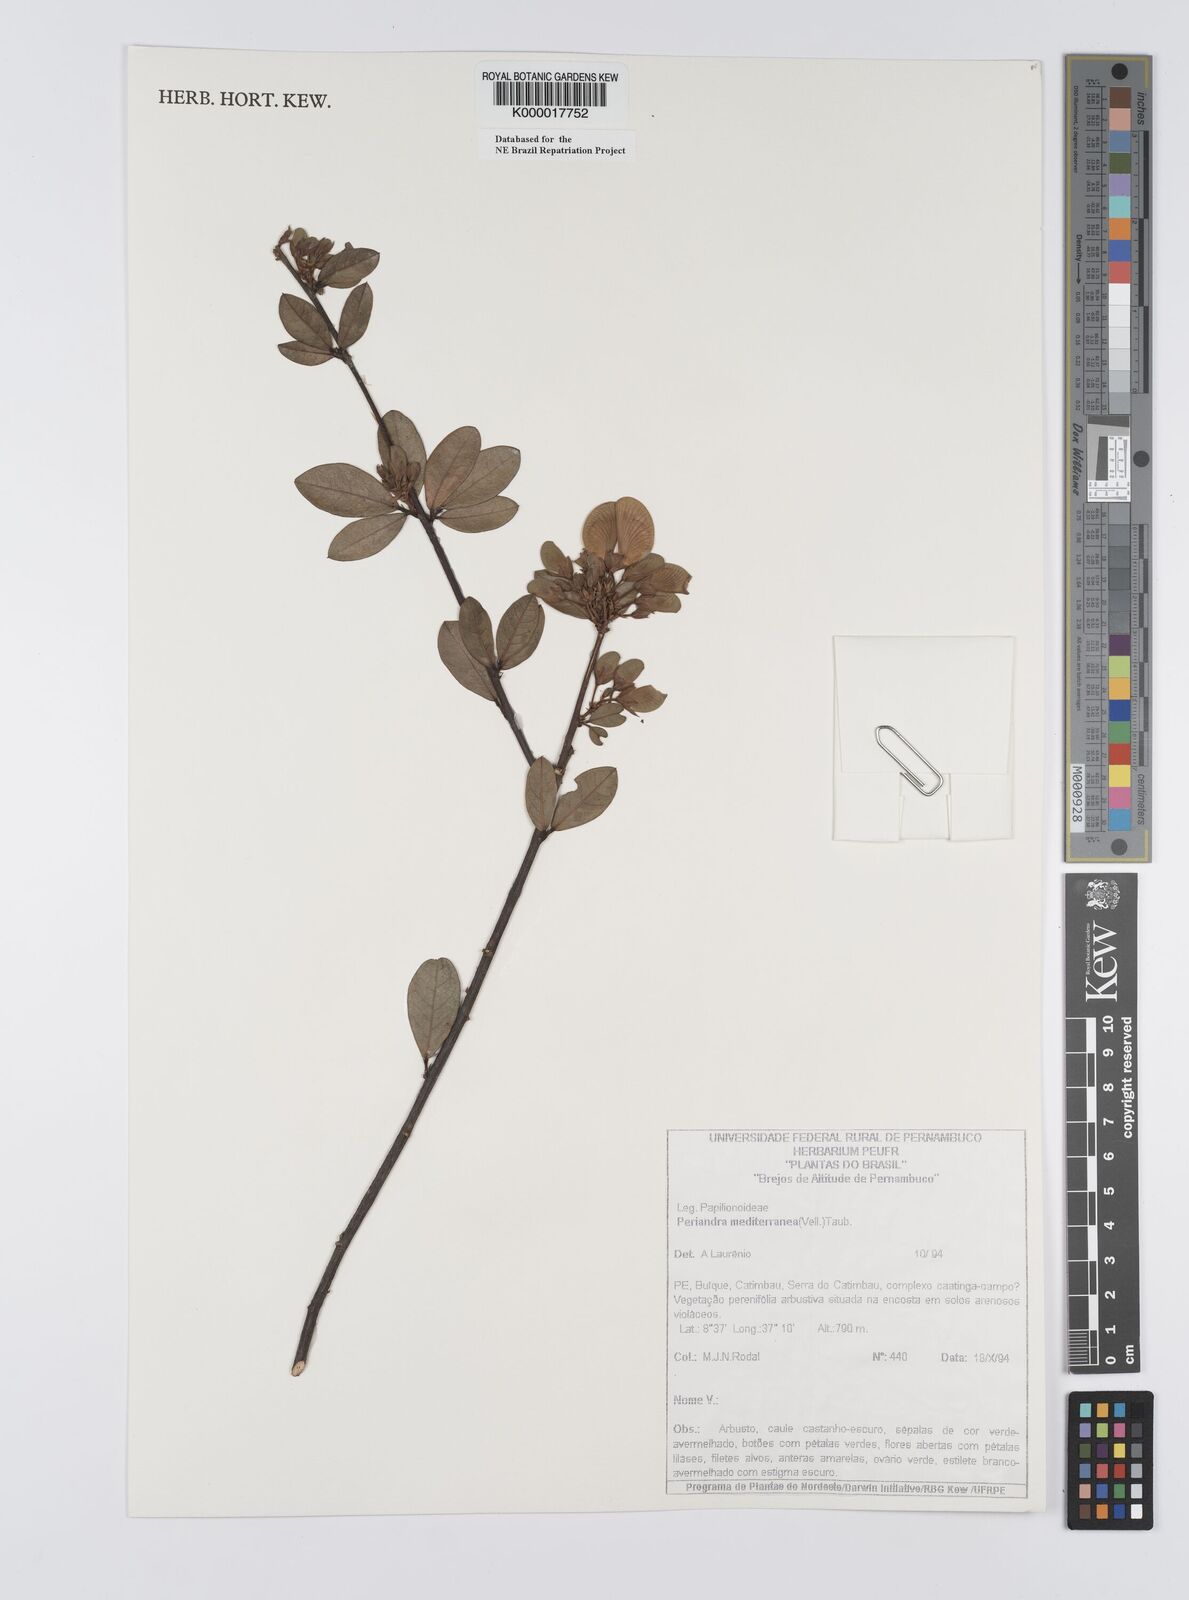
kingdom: Plantae
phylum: Tracheophyta
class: Magnoliopsida
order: Fabales
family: Fabaceae
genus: Periandra
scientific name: Periandra mediterranea
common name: Brazilian licorice
